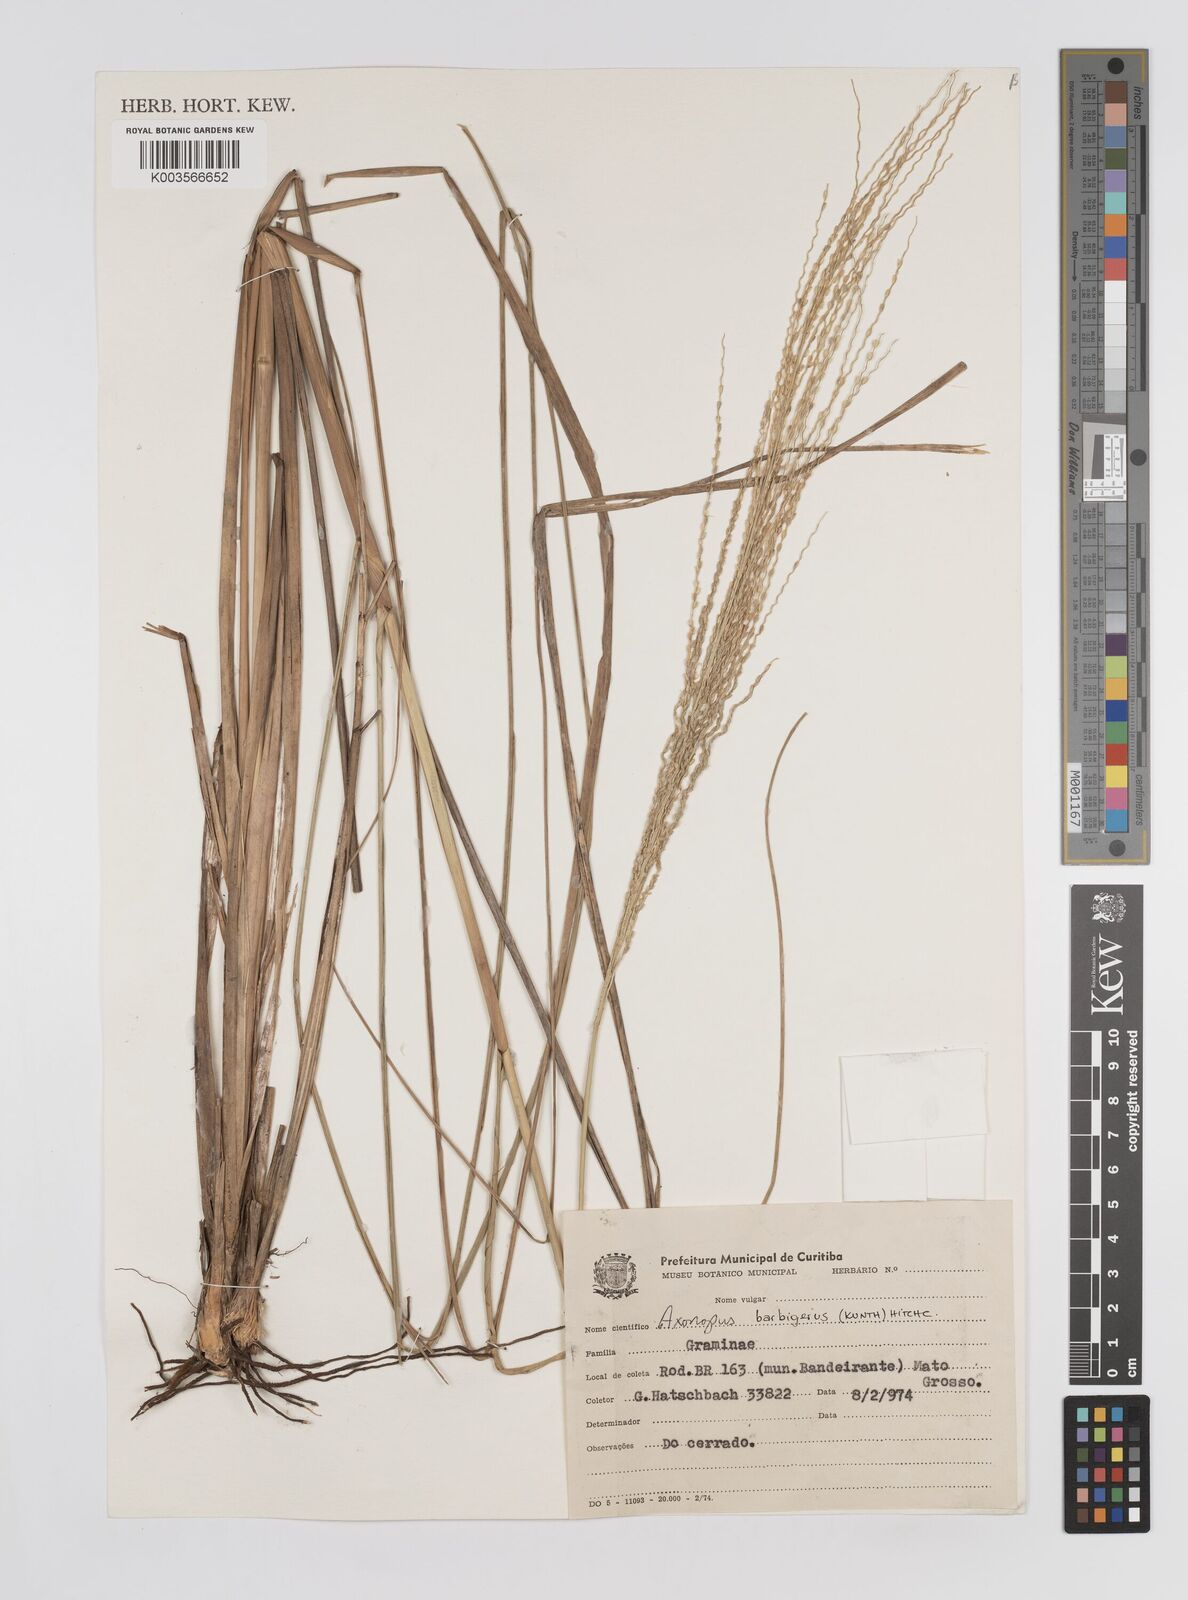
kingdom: Plantae
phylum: Tracheophyta
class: Liliopsida
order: Poales
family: Poaceae
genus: Axonopus
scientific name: Axonopus siccus
